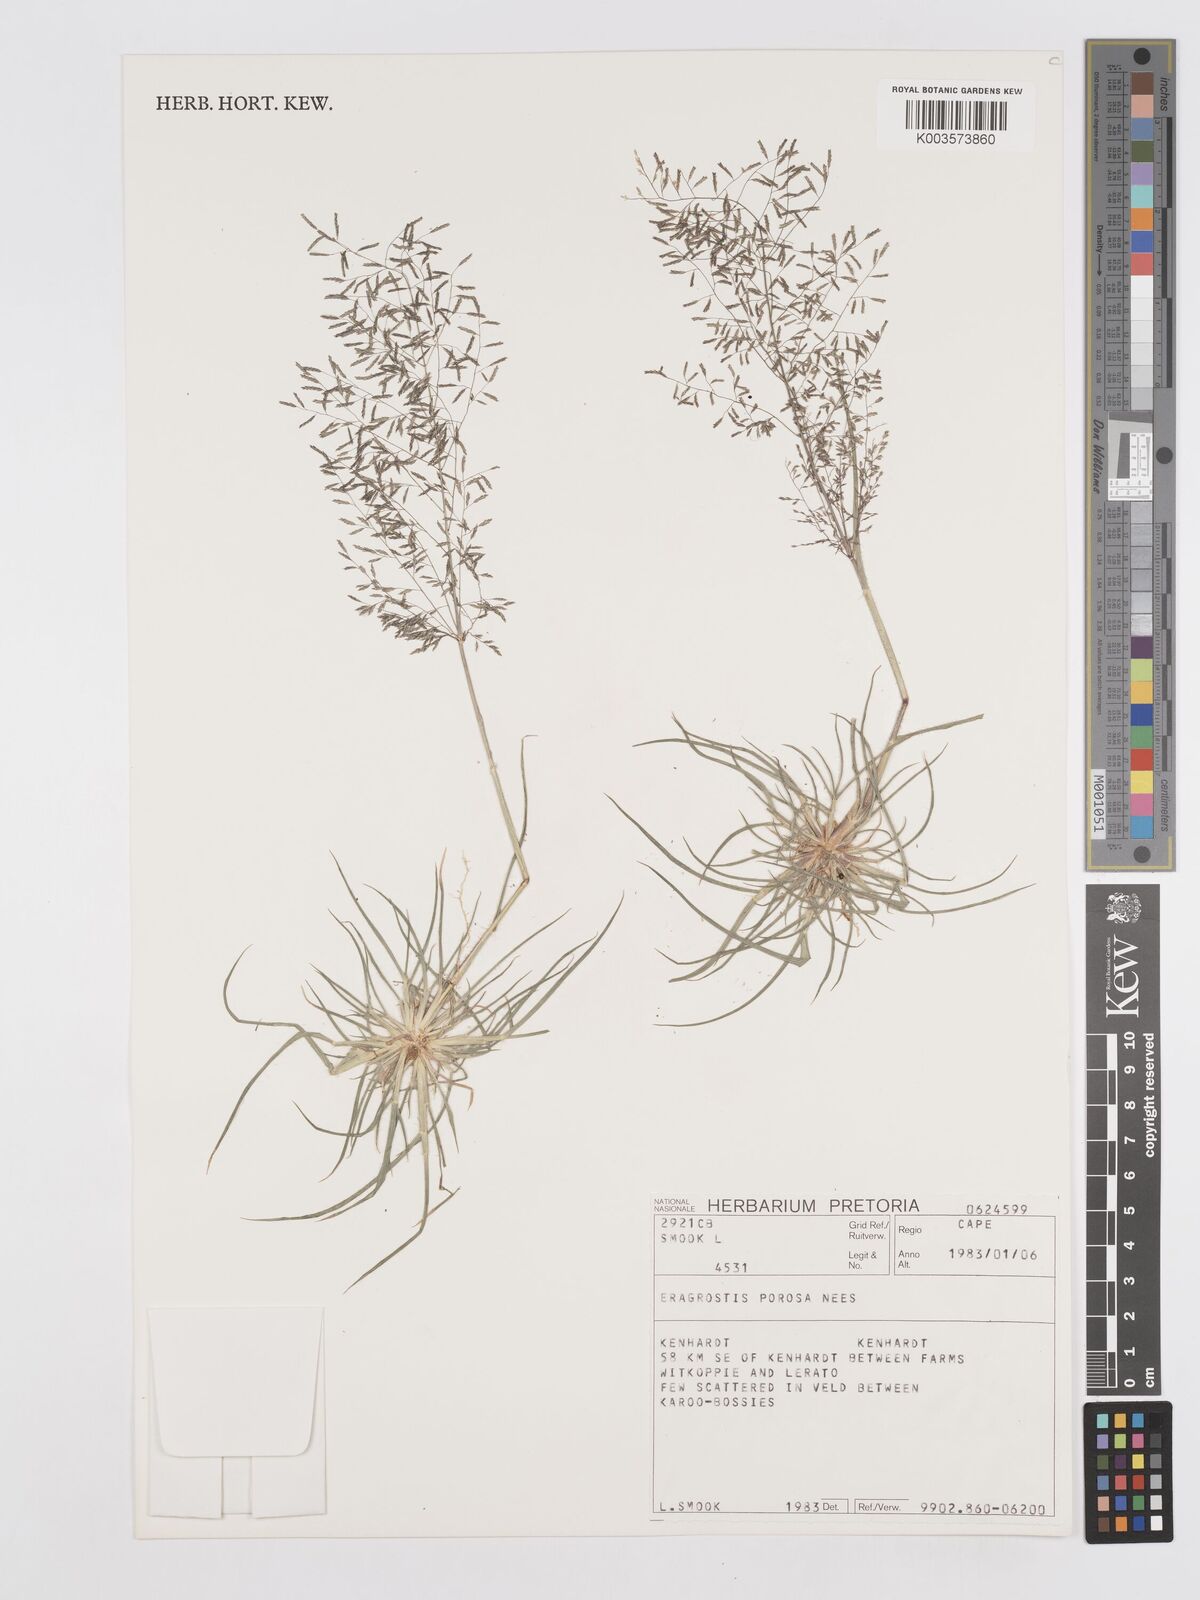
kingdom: Plantae
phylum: Tracheophyta
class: Liliopsida
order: Poales
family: Poaceae
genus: Eragrostis
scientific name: Eragrostis porosa
